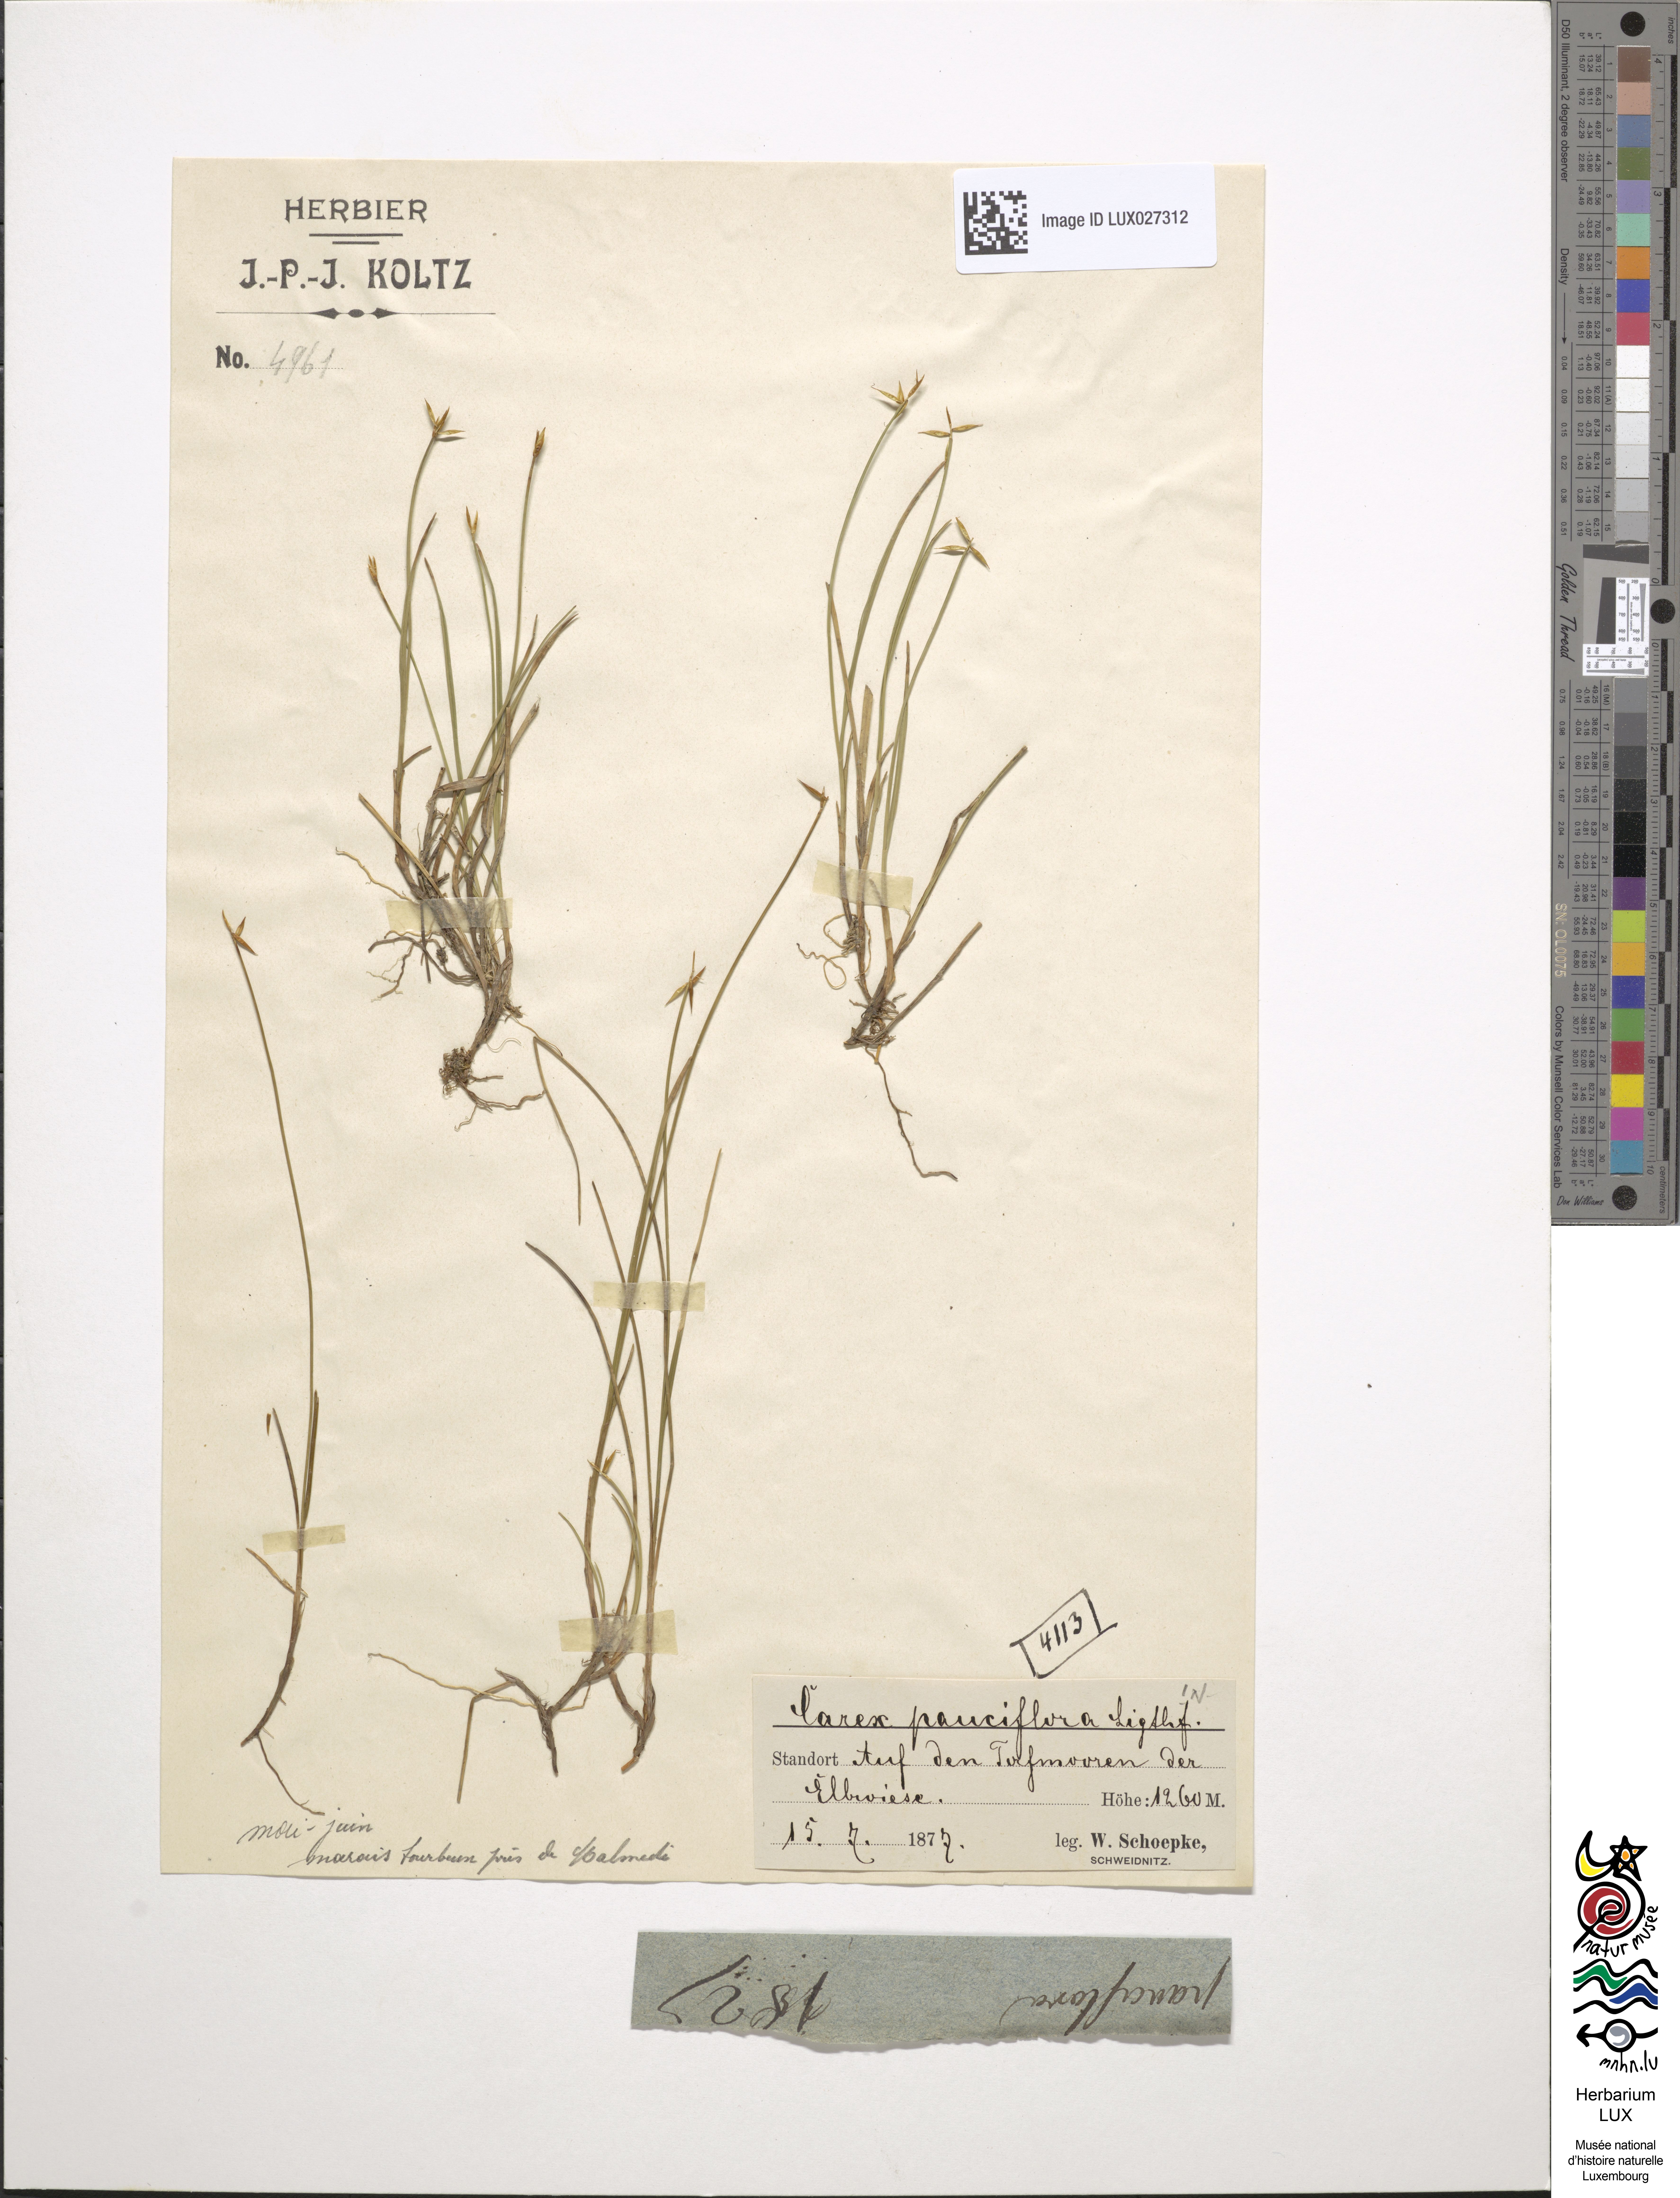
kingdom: Plantae
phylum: Tracheophyta
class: Liliopsida
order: Poales
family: Cyperaceae
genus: Carex
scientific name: Carex pauciflora
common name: Few-flowered sedge
